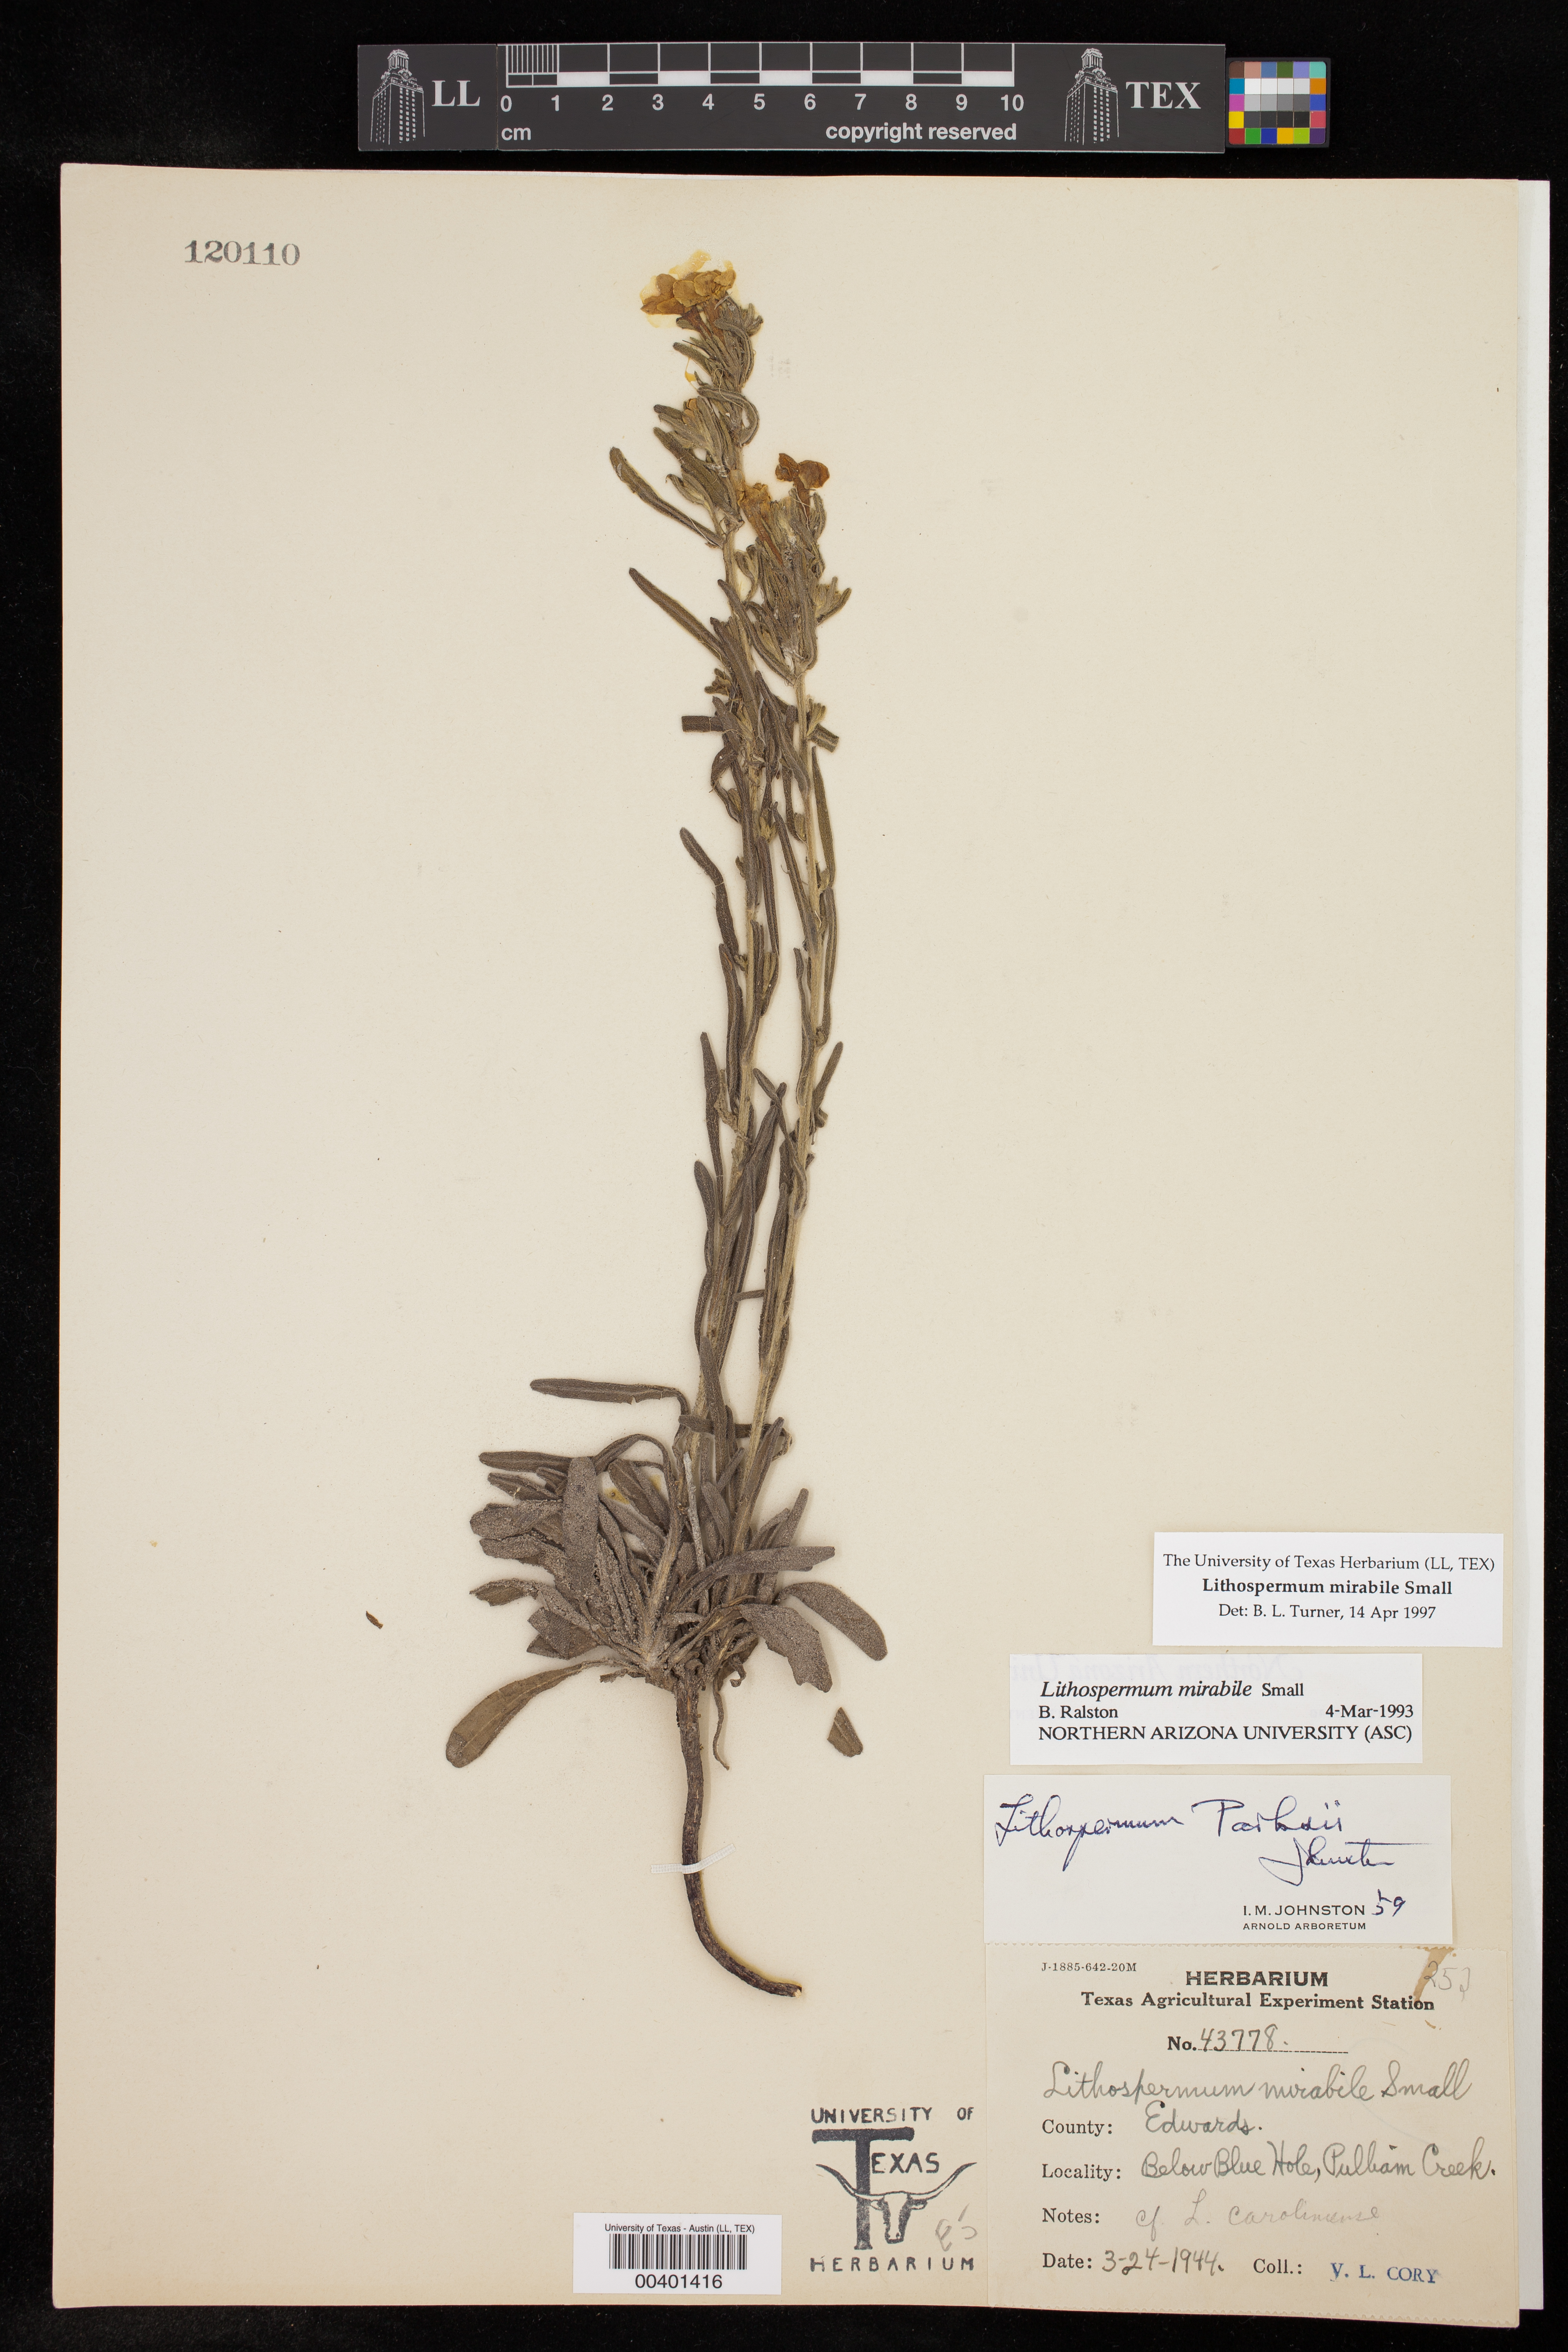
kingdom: Plantae
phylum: Tracheophyta
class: Magnoliopsida
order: Boraginales
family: Boraginaceae
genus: Lithospermum
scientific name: Lithospermum parksii
